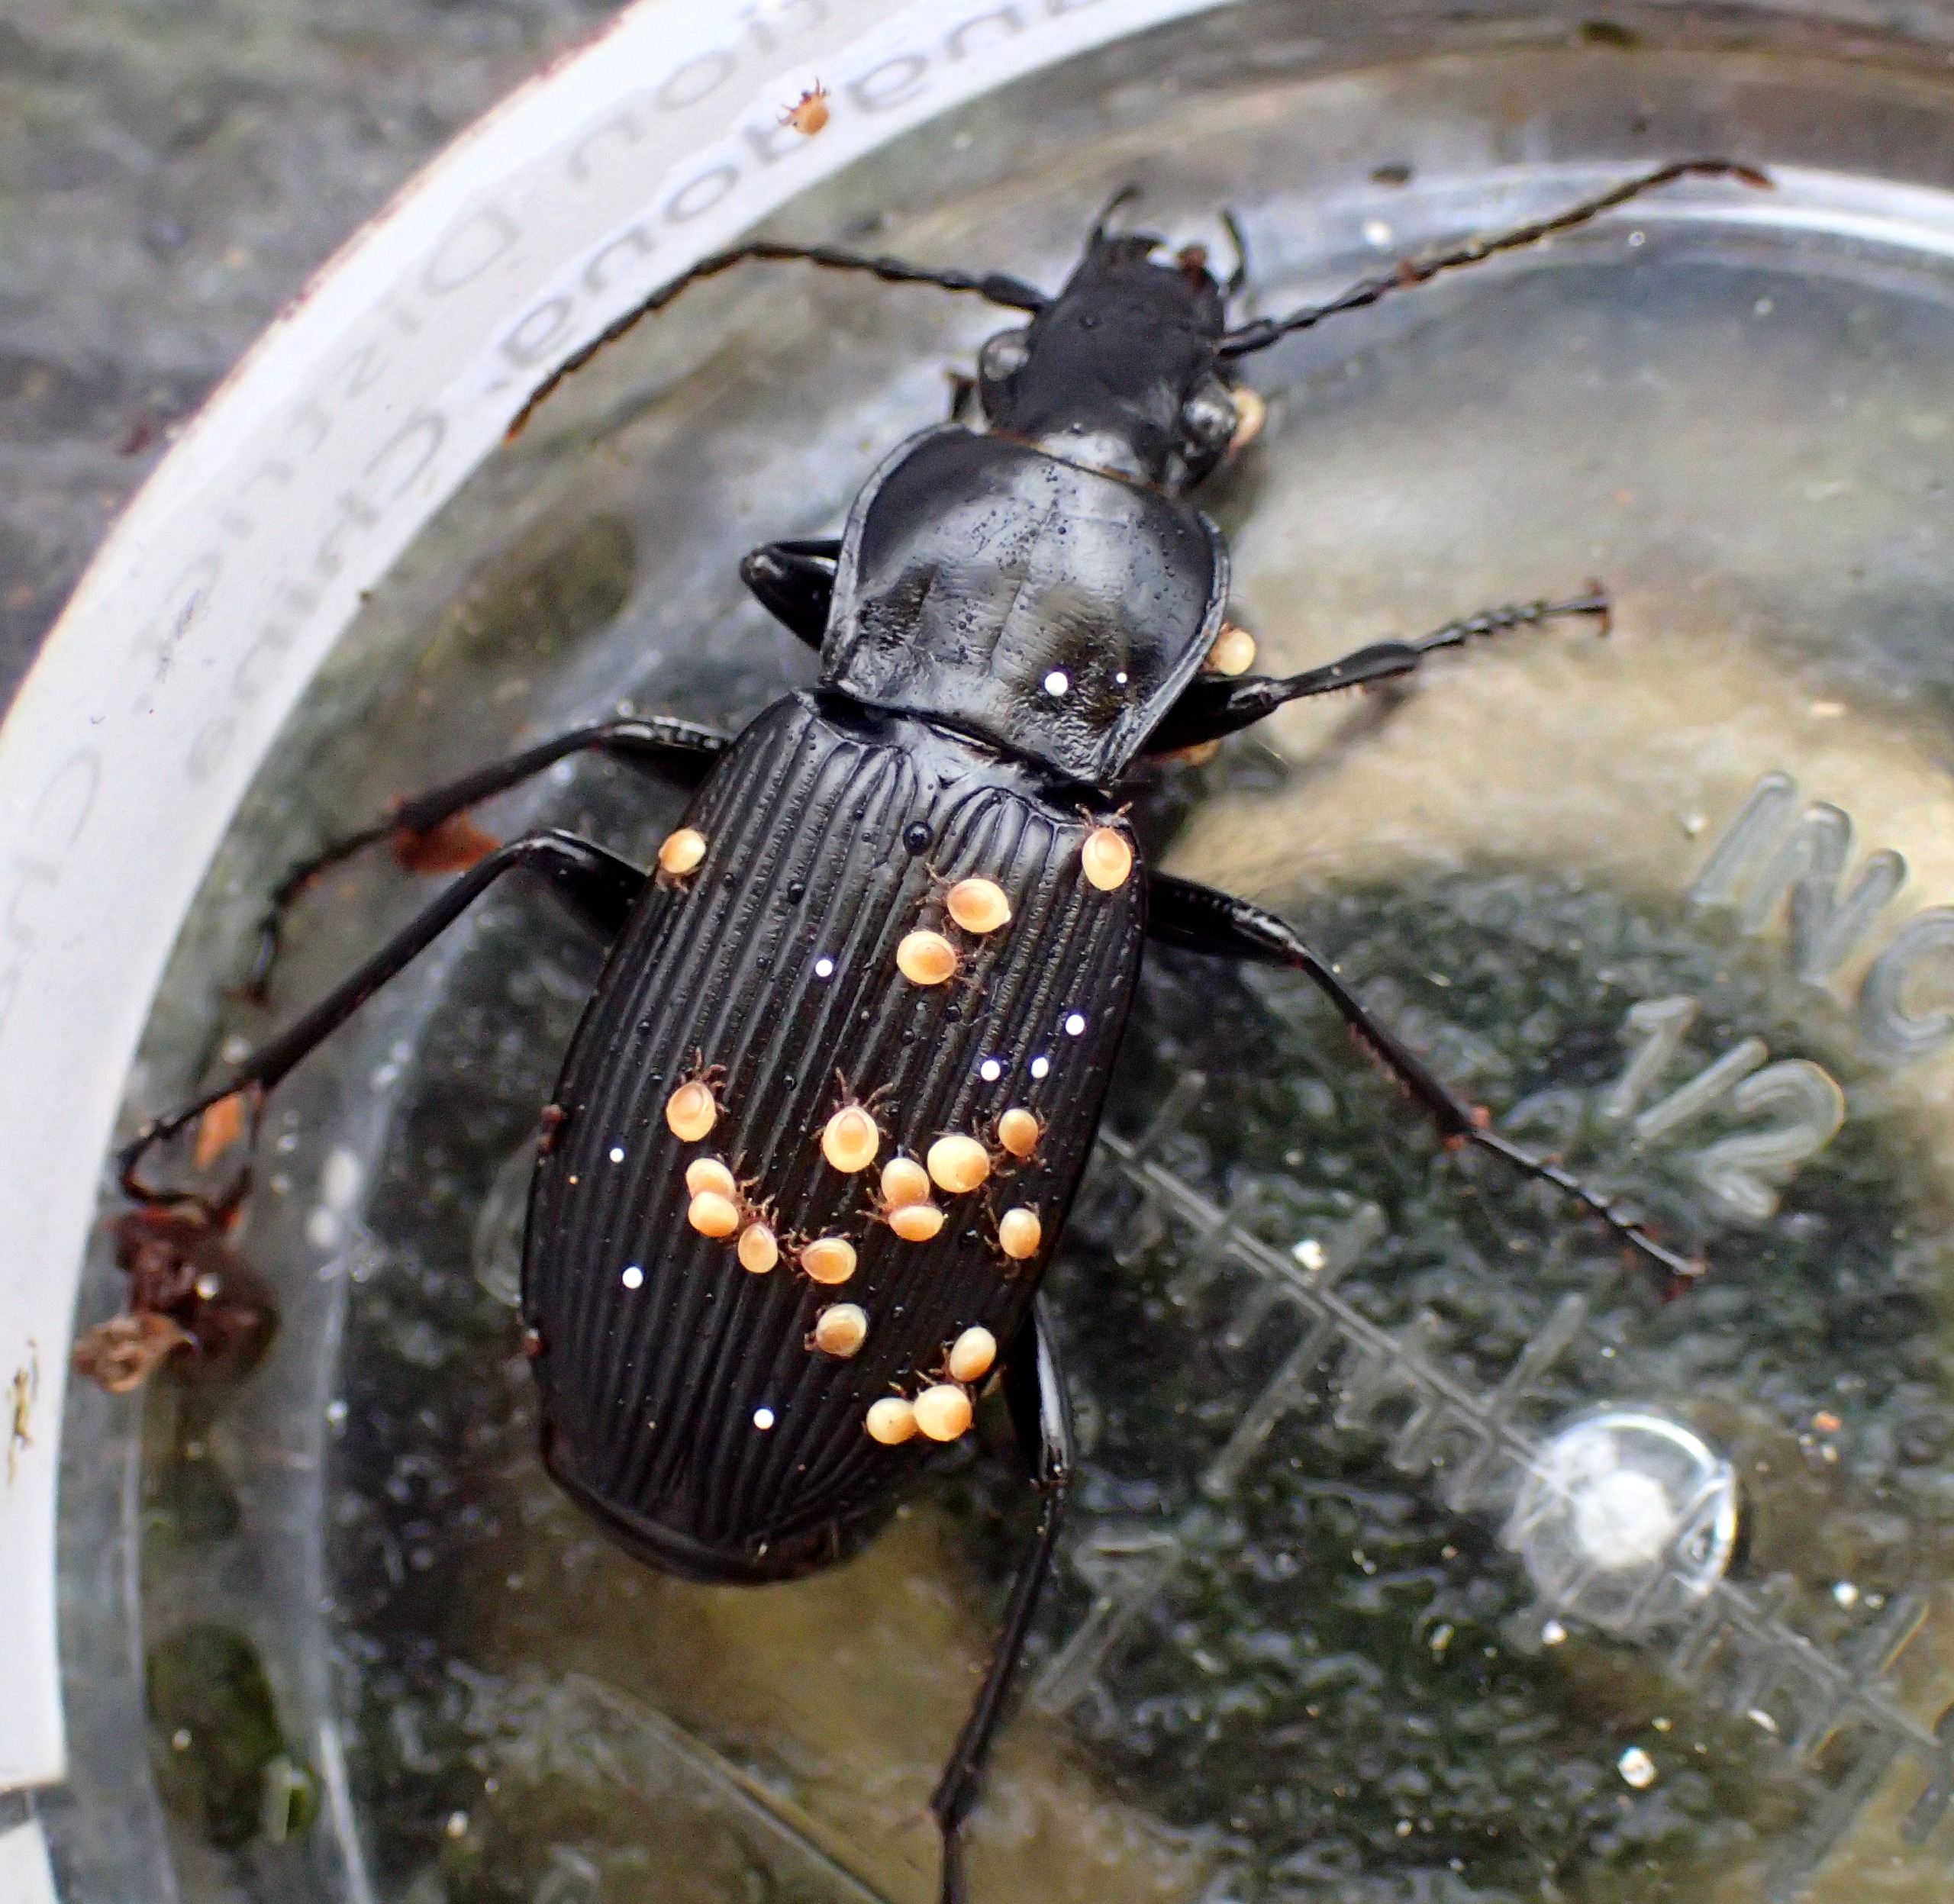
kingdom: Animalia
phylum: Arthropoda
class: Insecta
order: Coleoptera
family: Carabidae
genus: Pterostichus
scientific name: Pterostichus niger
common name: Skovjordløber
